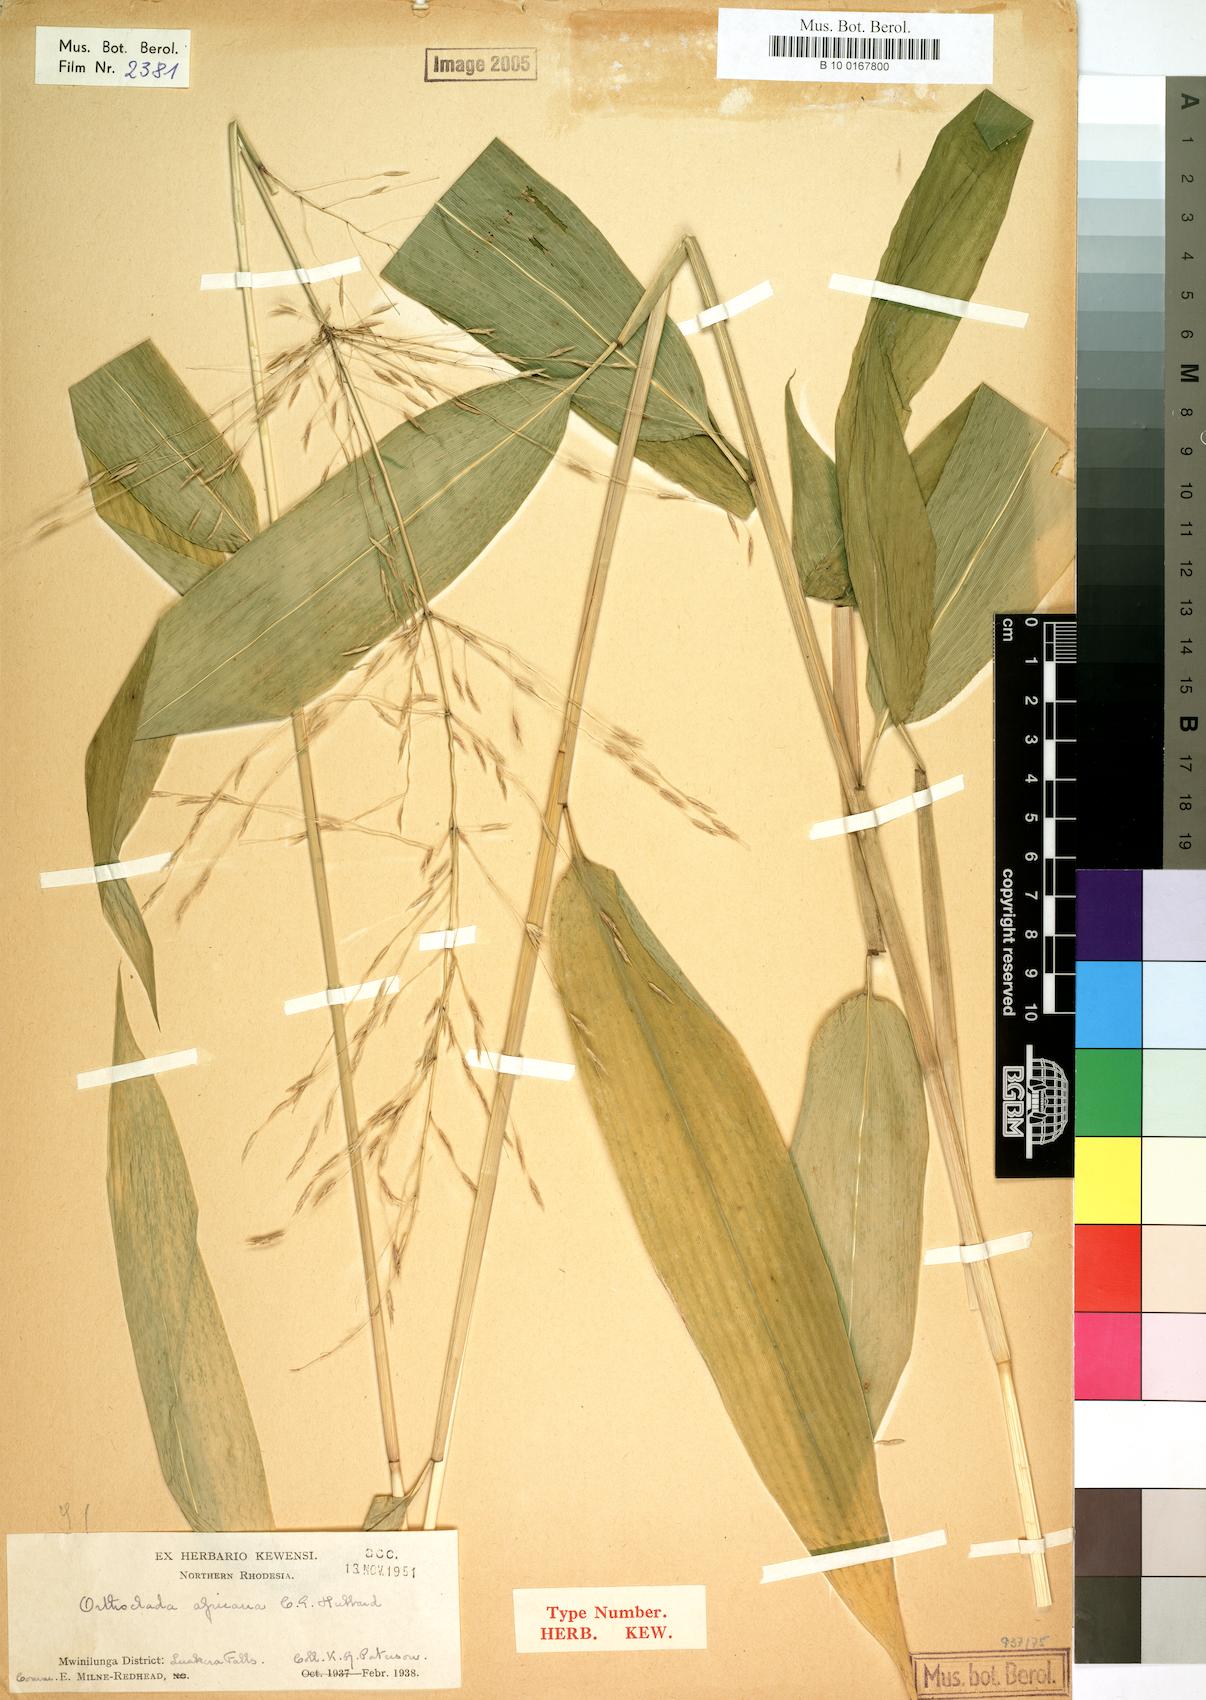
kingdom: Plantae
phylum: Tracheophyta
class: Liliopsida
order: Poales
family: Poaceae
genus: Orthoclada
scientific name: Orthoclada africana
